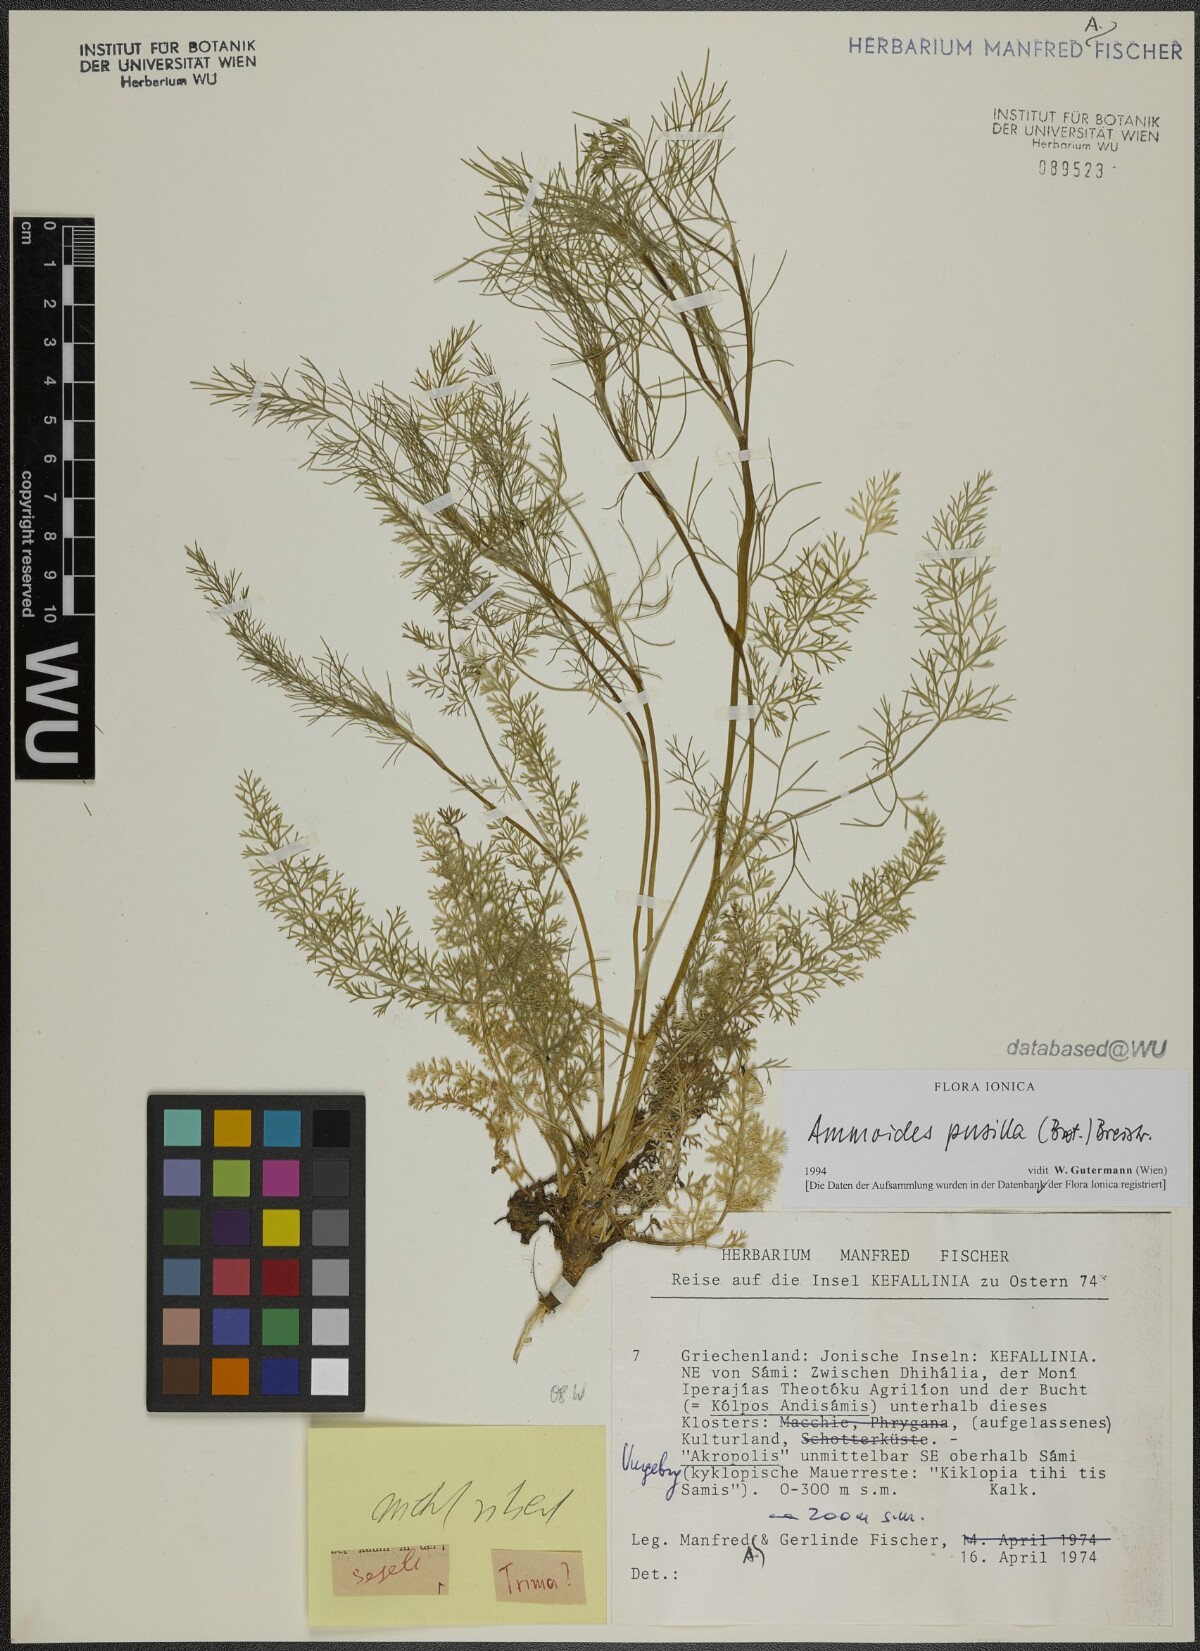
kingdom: Plantae
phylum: Tracheophyta
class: Magnoliopsida
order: Apiales
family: Apiaceae
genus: Ammoides
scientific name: Ammoides pusilla
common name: Cerfolium
